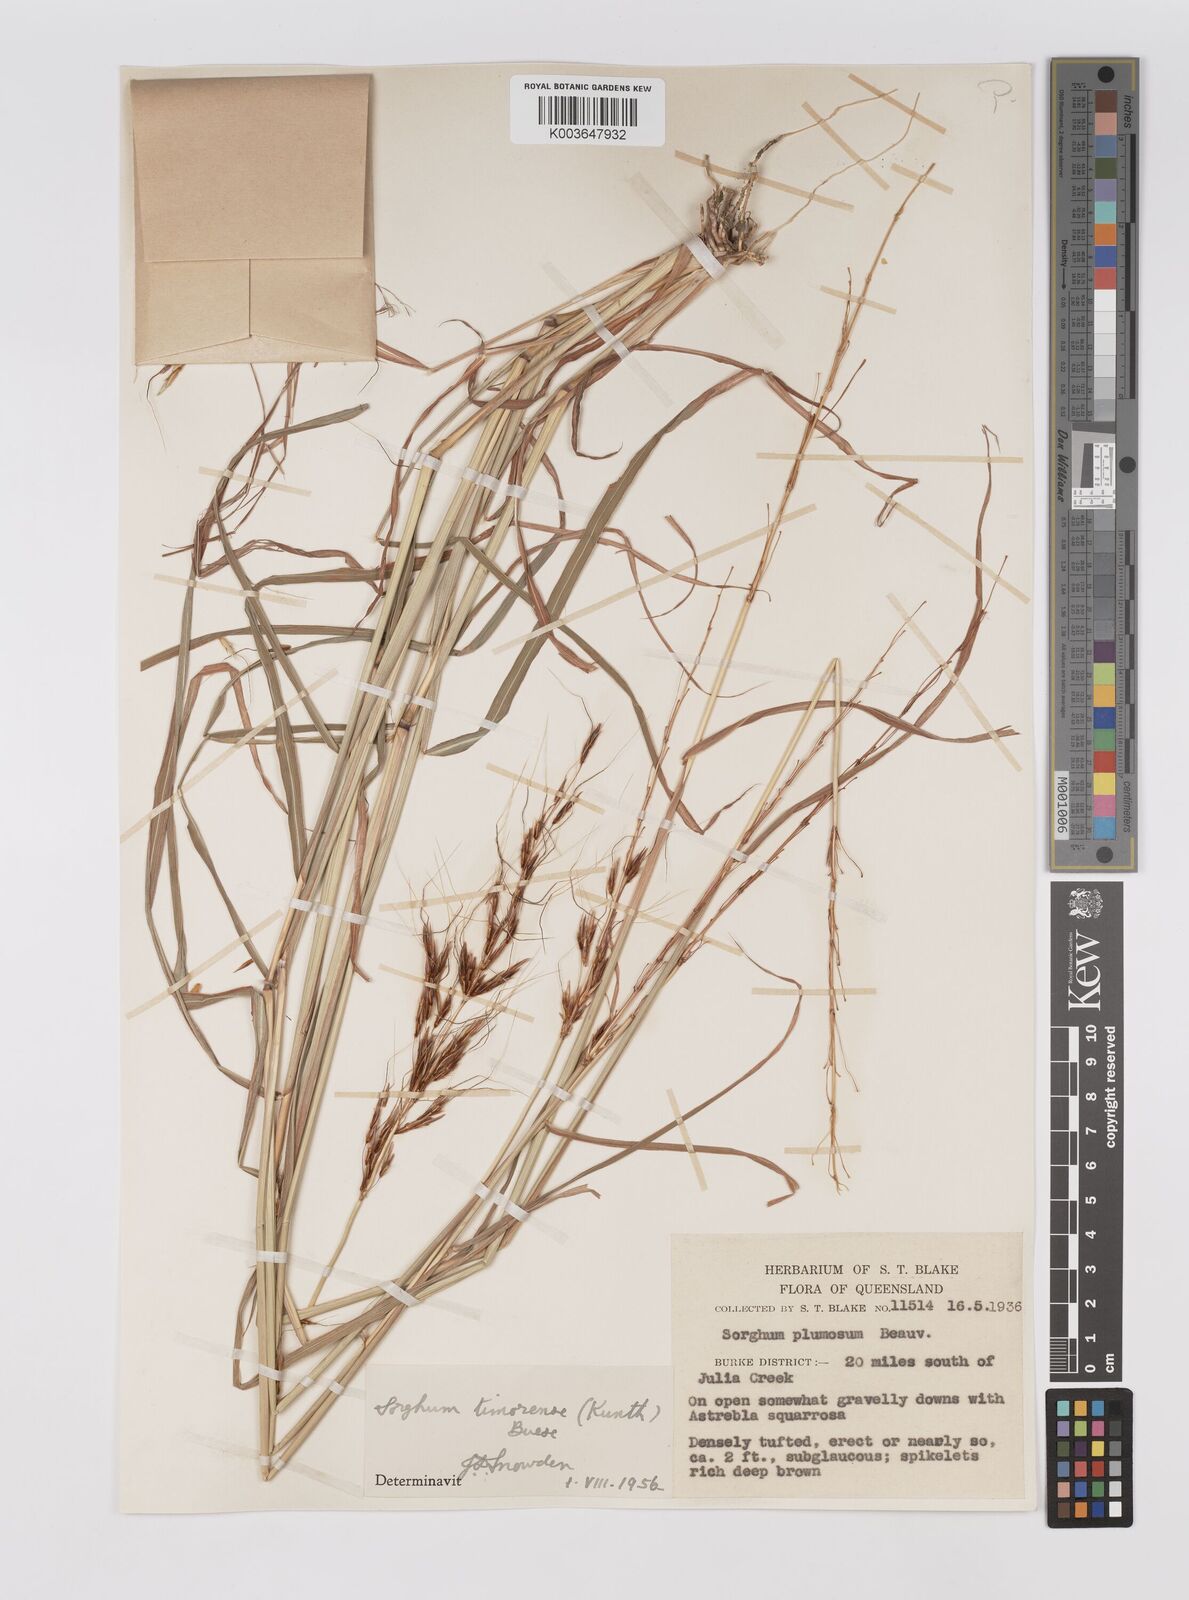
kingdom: Plantae
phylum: Tracheophyta
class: Liliopsida
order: Poales
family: Poaceae
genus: Sarga
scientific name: Sarga timorensis
